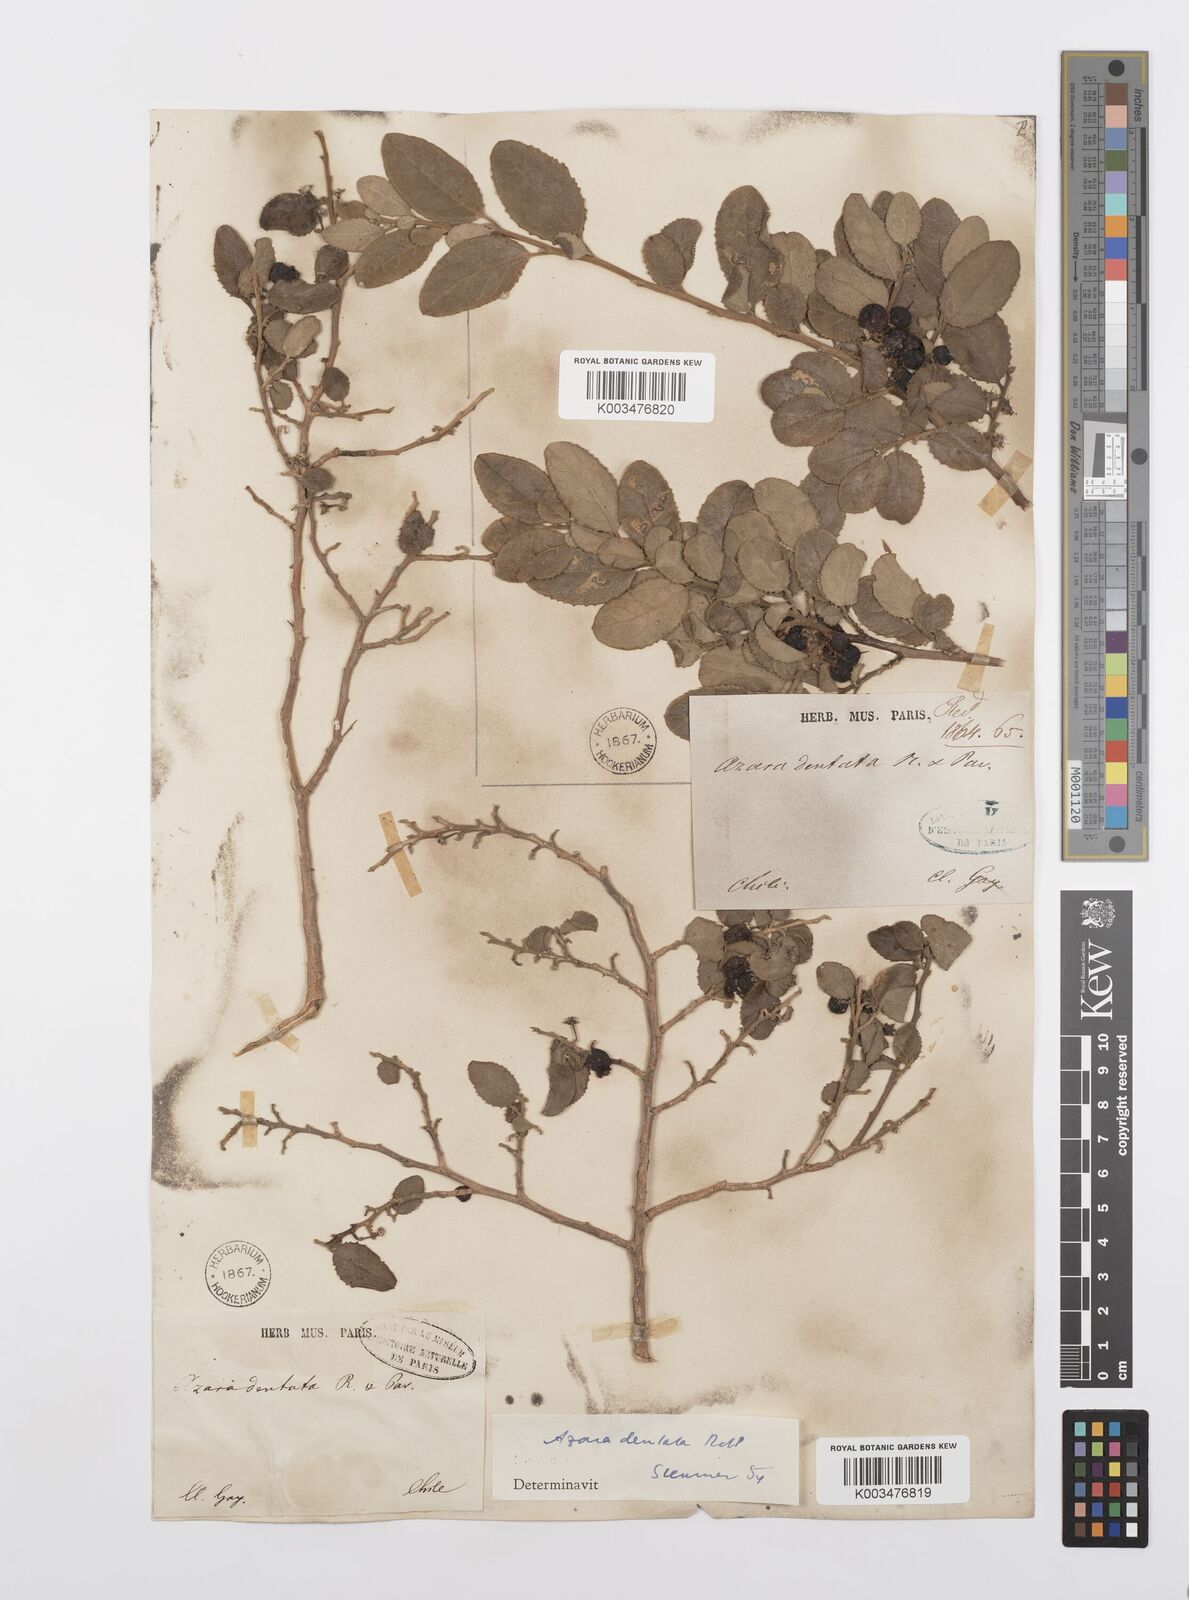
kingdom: Plantae
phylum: Tracheophyta
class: Magnoliopsida
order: Malpighiales
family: Salicaceae
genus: Azara
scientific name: Azara dentata
